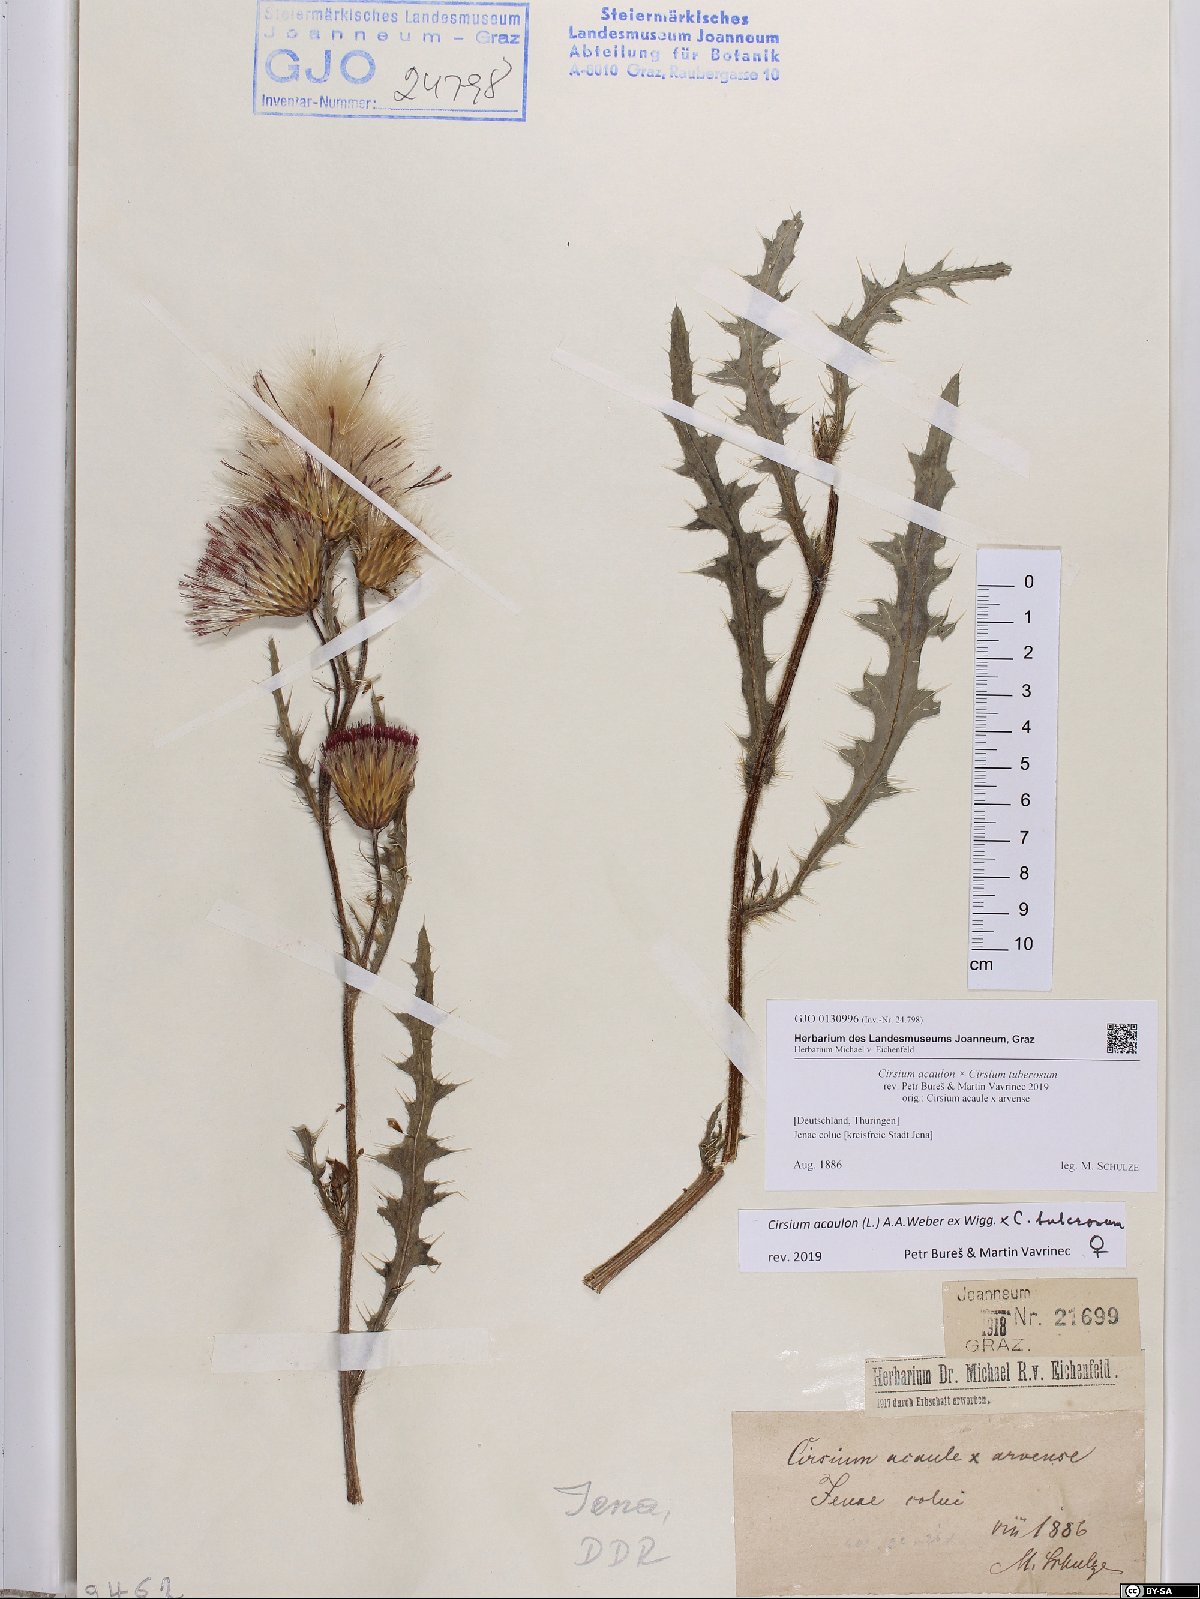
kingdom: Plantae
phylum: Tracheophyta
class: Magnoliopsida
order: Asterales
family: Asteraceae
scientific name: Asteraceae
